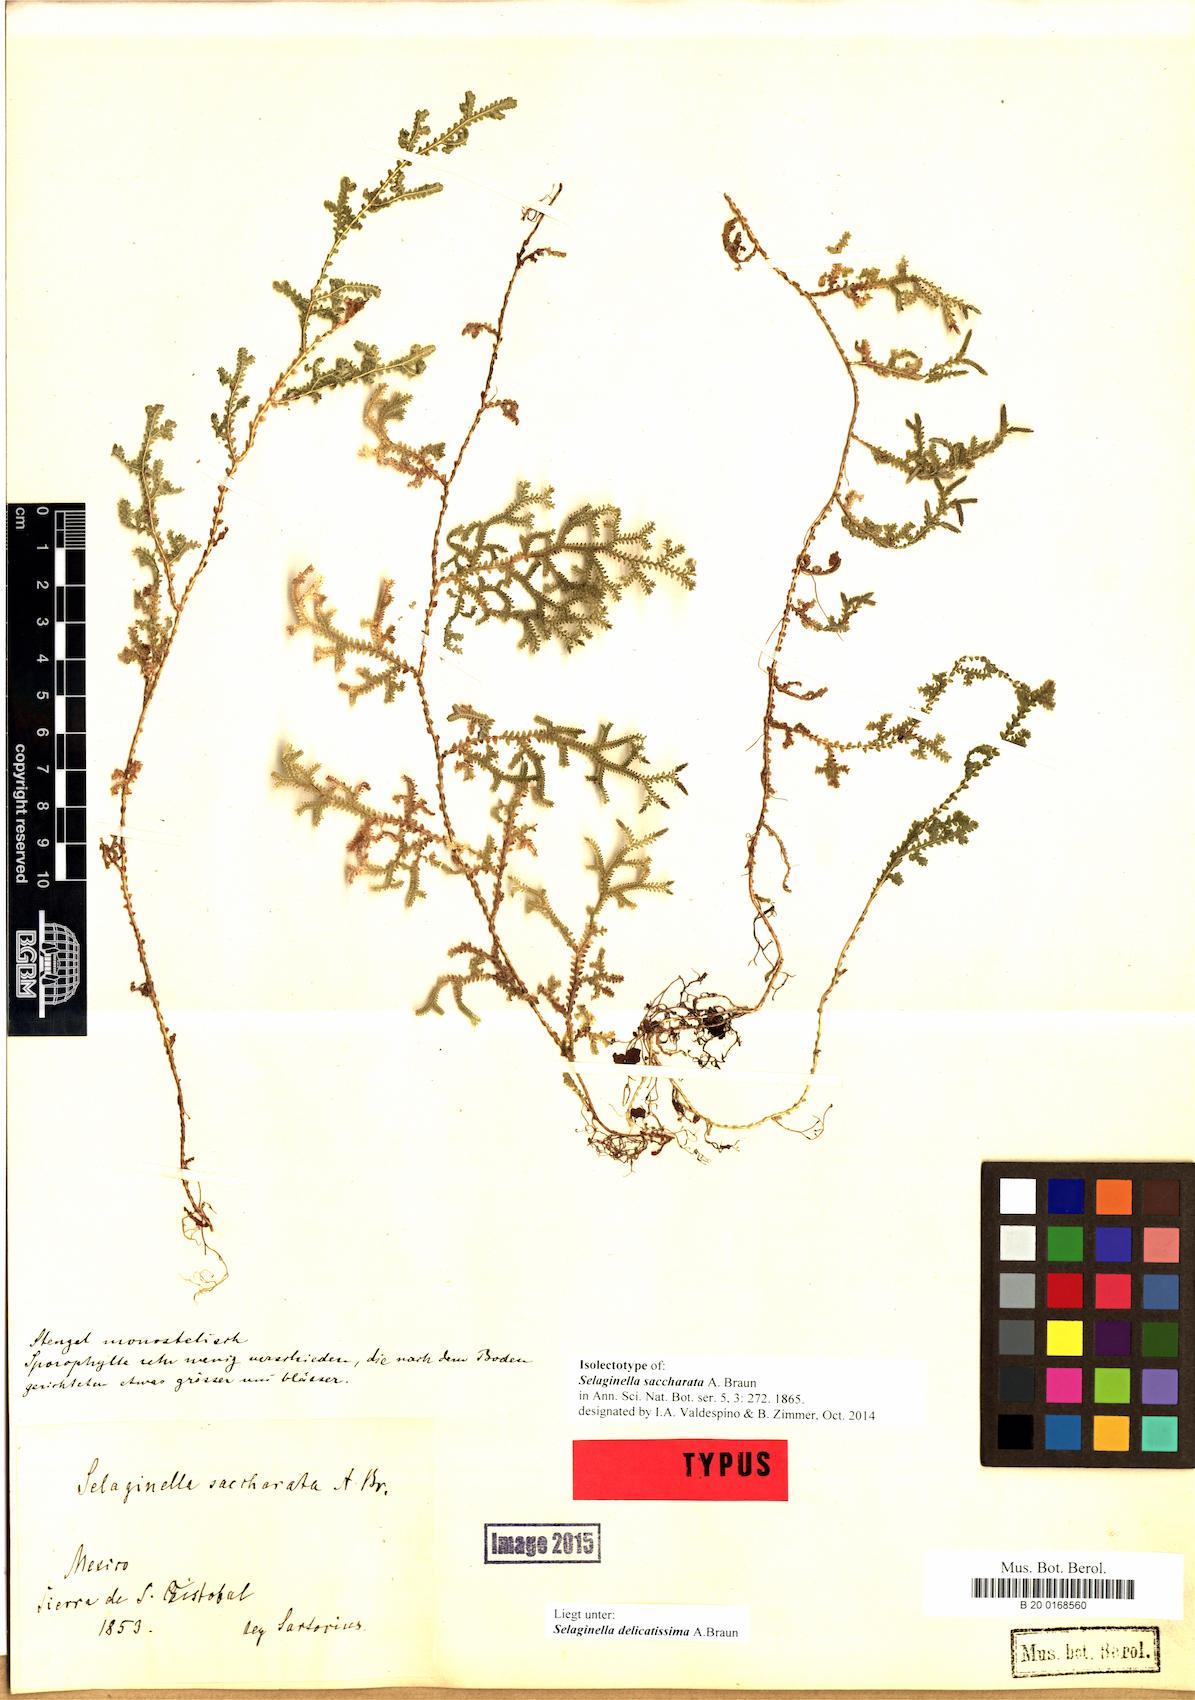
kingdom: Plantae
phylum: Tracheophyta
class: Lycopodiopsida
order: Selaginellales
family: Selaginellaceae
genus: Selaginella
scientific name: Selaginella delicatissima
